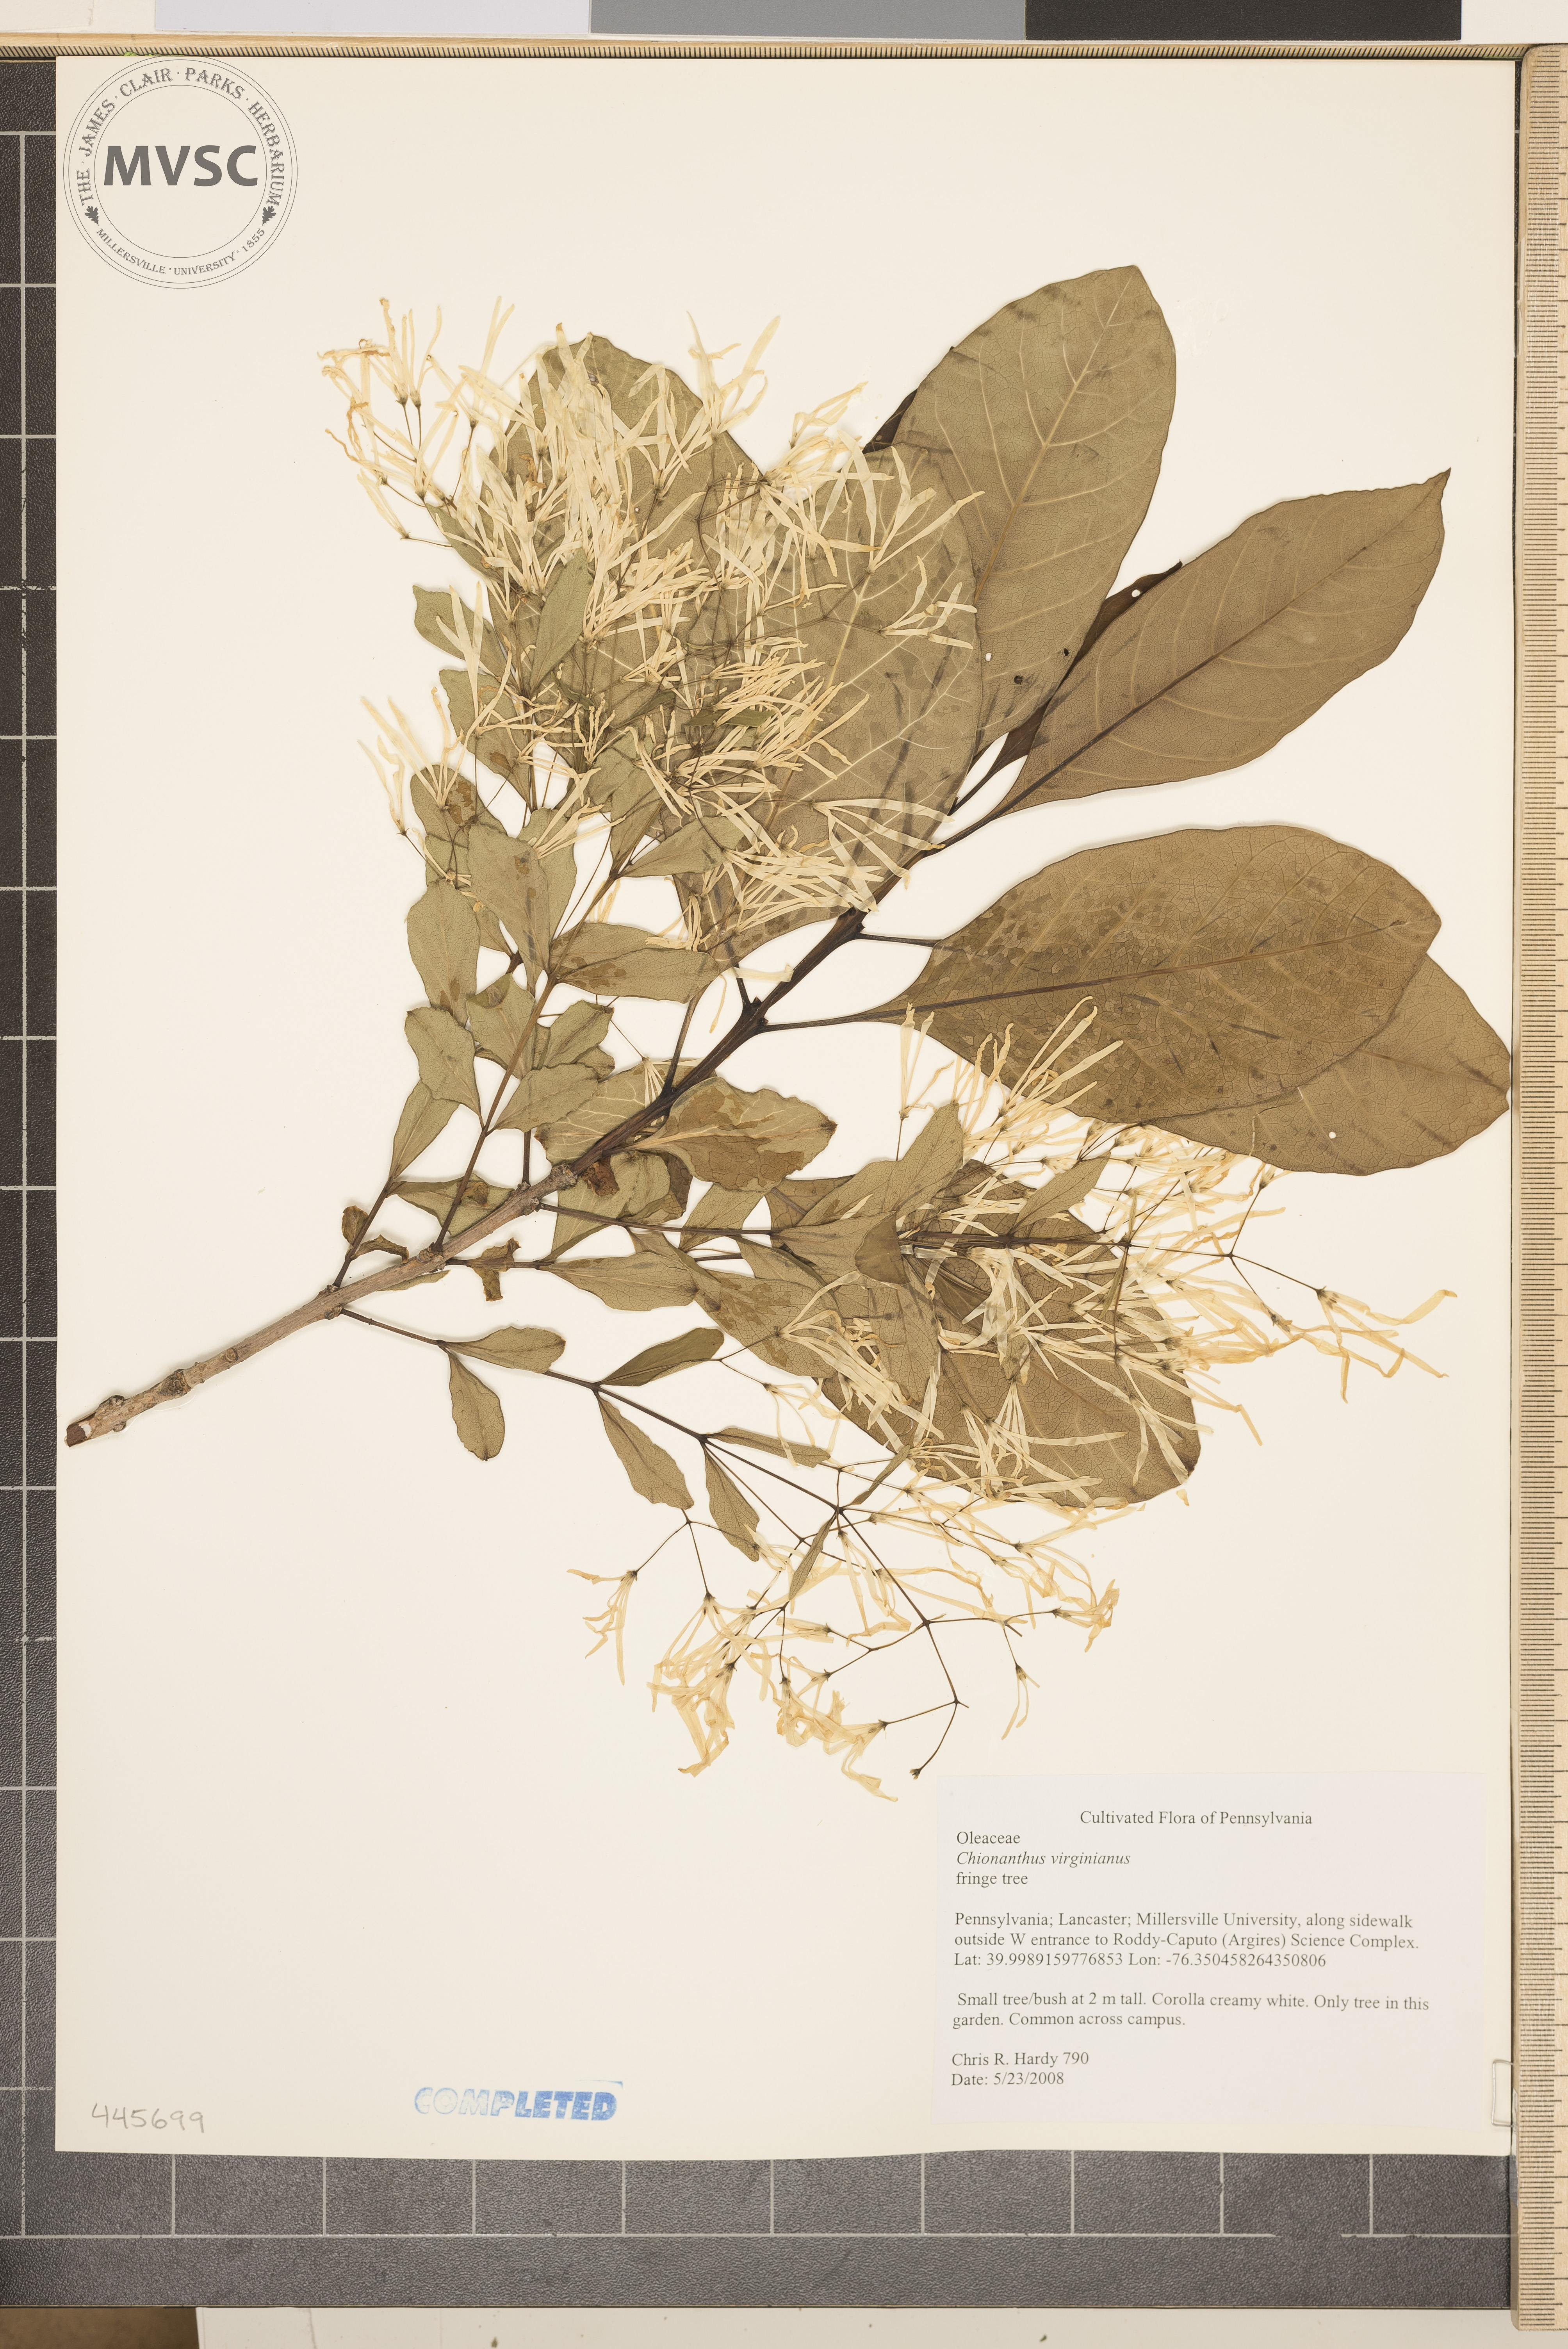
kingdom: Plantae
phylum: Tracheophyta
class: Magnoliopsida
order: Lamiales
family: Oleaceae
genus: Chionanthus
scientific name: Chionanthus virginicus
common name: fringe tree
